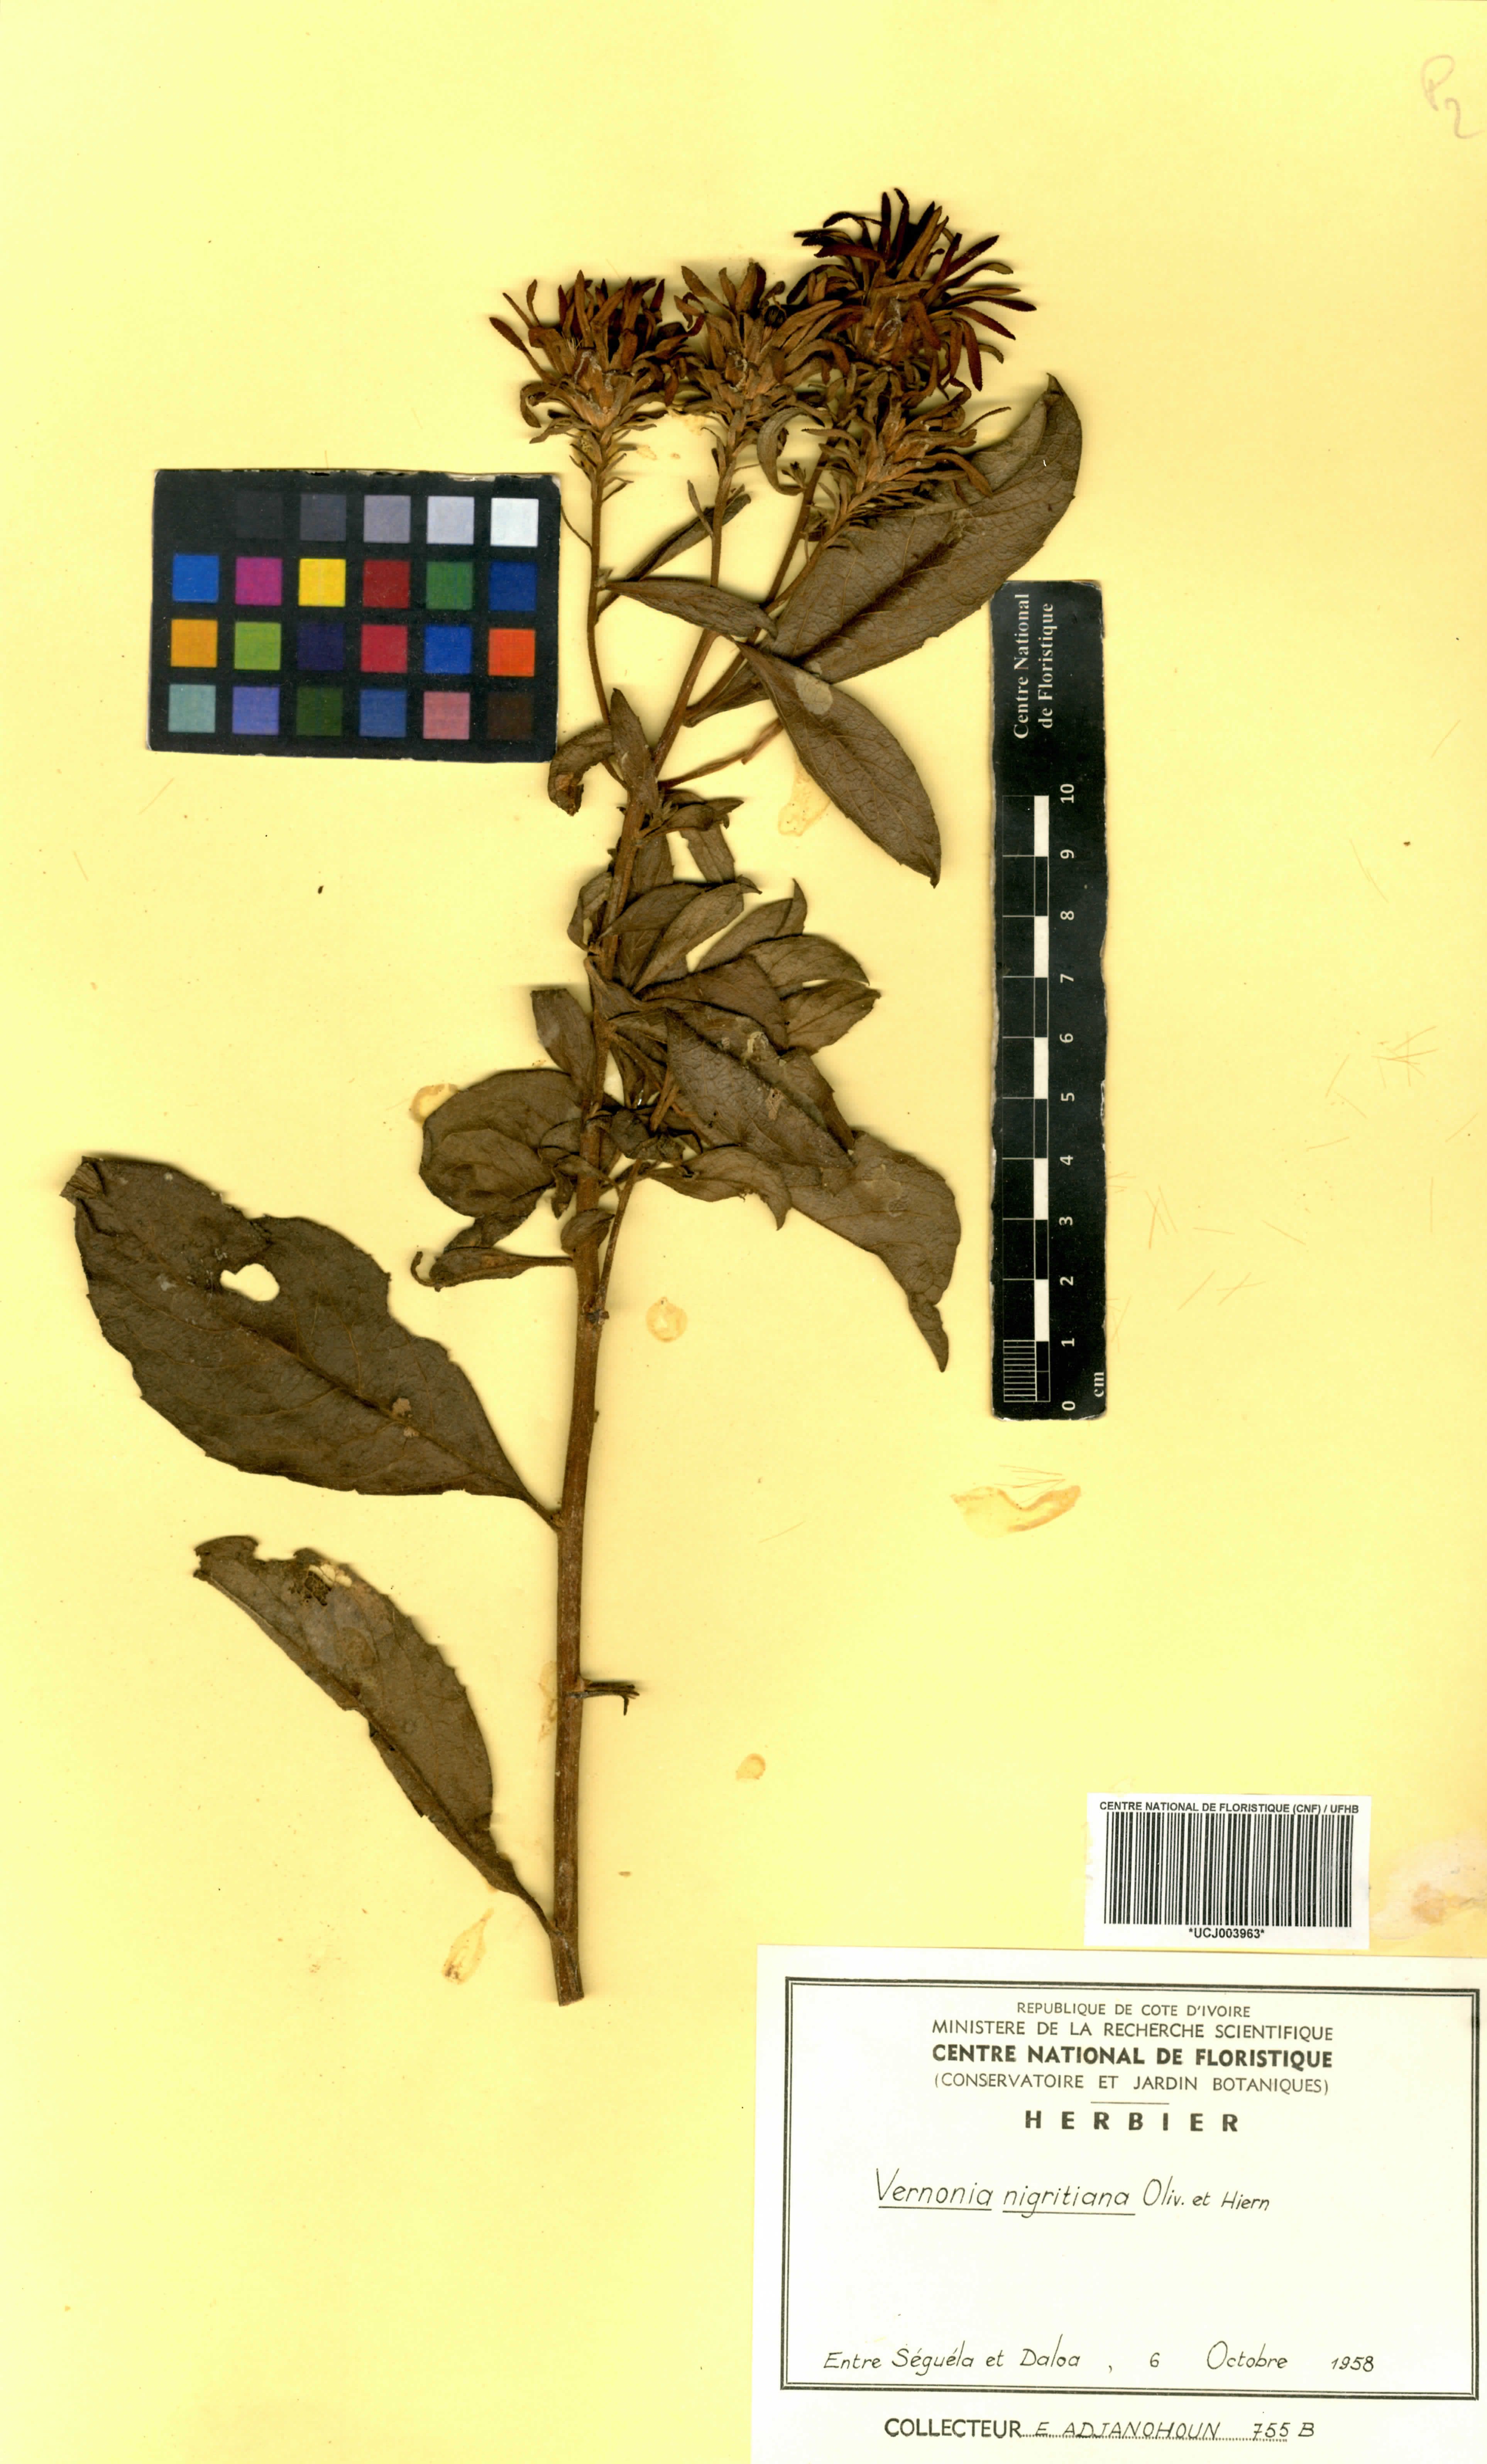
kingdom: Plantae
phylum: Tracheophyta
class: Magnoliopsida
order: Asterales
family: Asteraceae
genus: Linzia
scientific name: Linzia nigritiana
